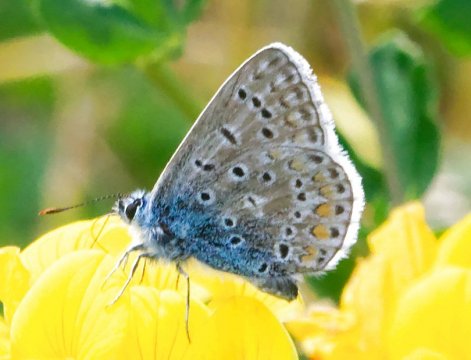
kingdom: Animalia
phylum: Arthropoda
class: Insecta
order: Lepidoptera
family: Lycaenidae
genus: Polyommatus
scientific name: Polyommatus icarus
